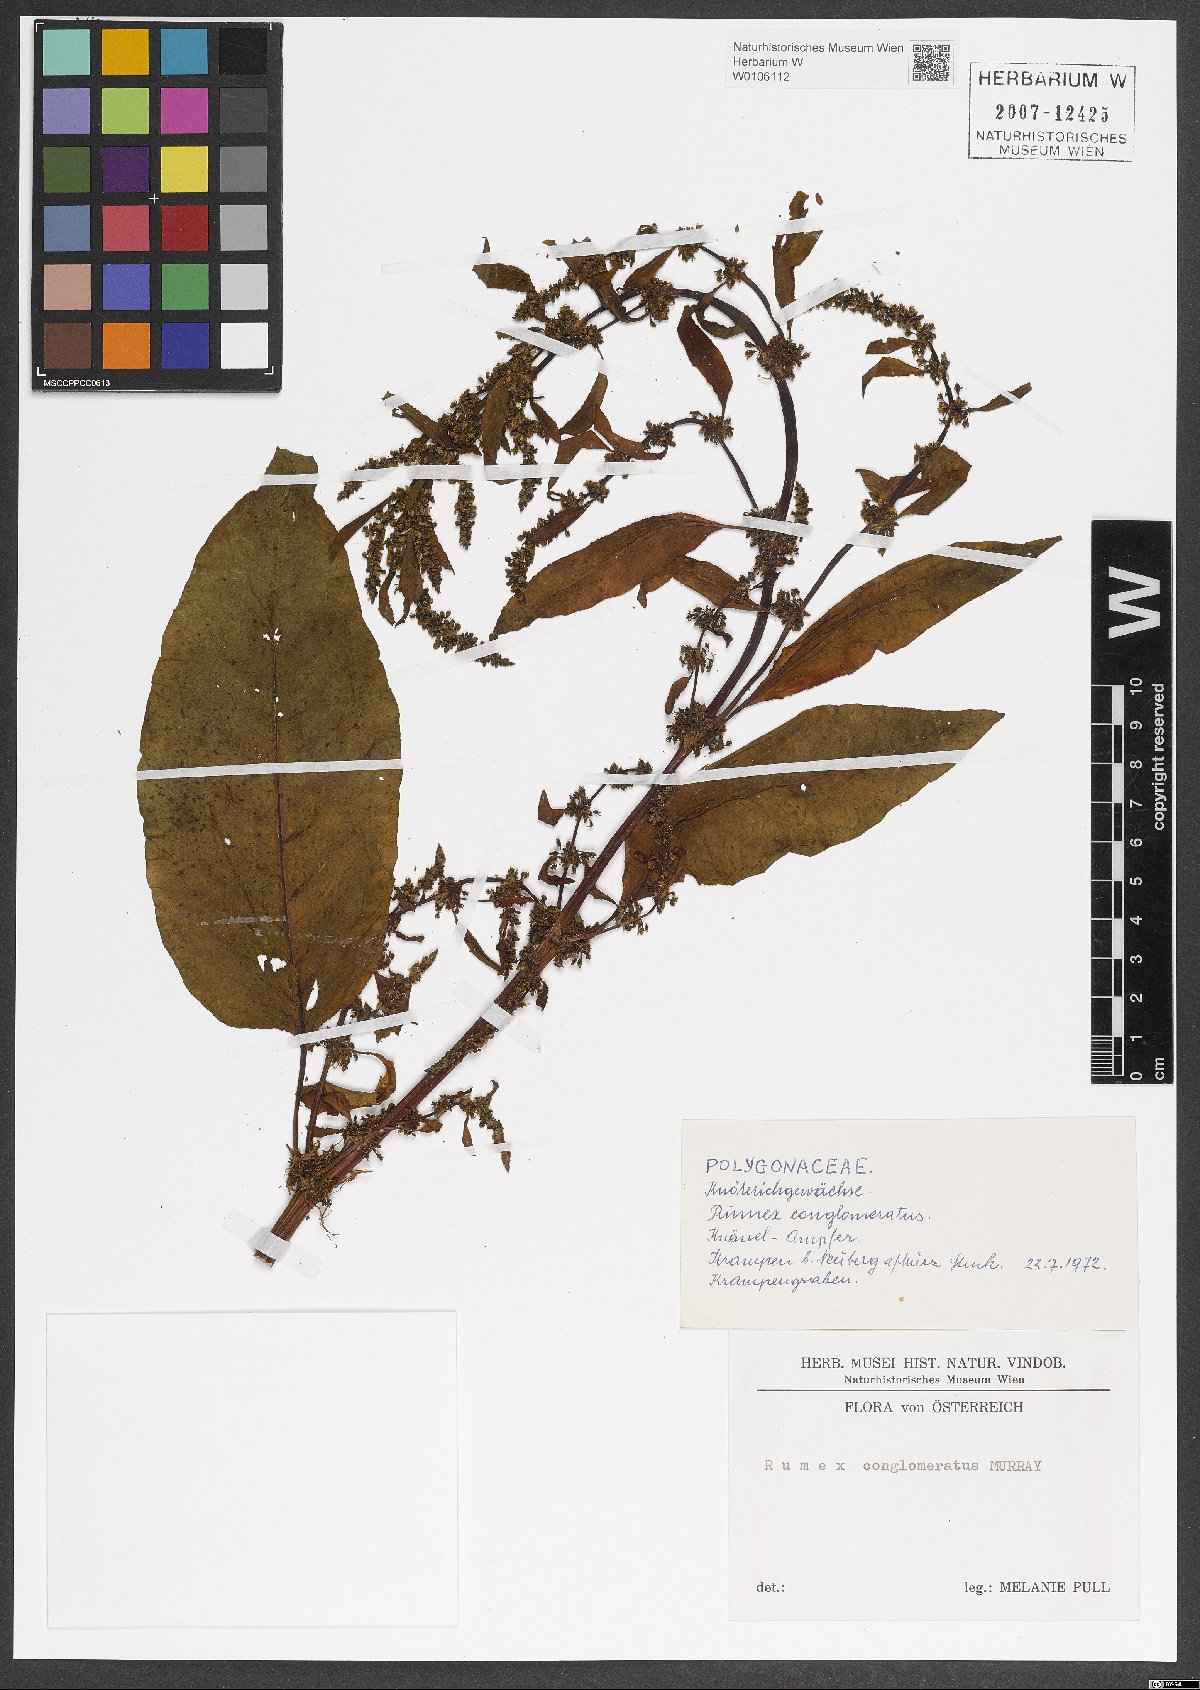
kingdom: Plantae
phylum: Tracheophyta
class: Magnoliopsida
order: Caryophyllales
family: Polygonaceae
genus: Rumex
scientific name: Rumex conglomeratus
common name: Clustered dock
